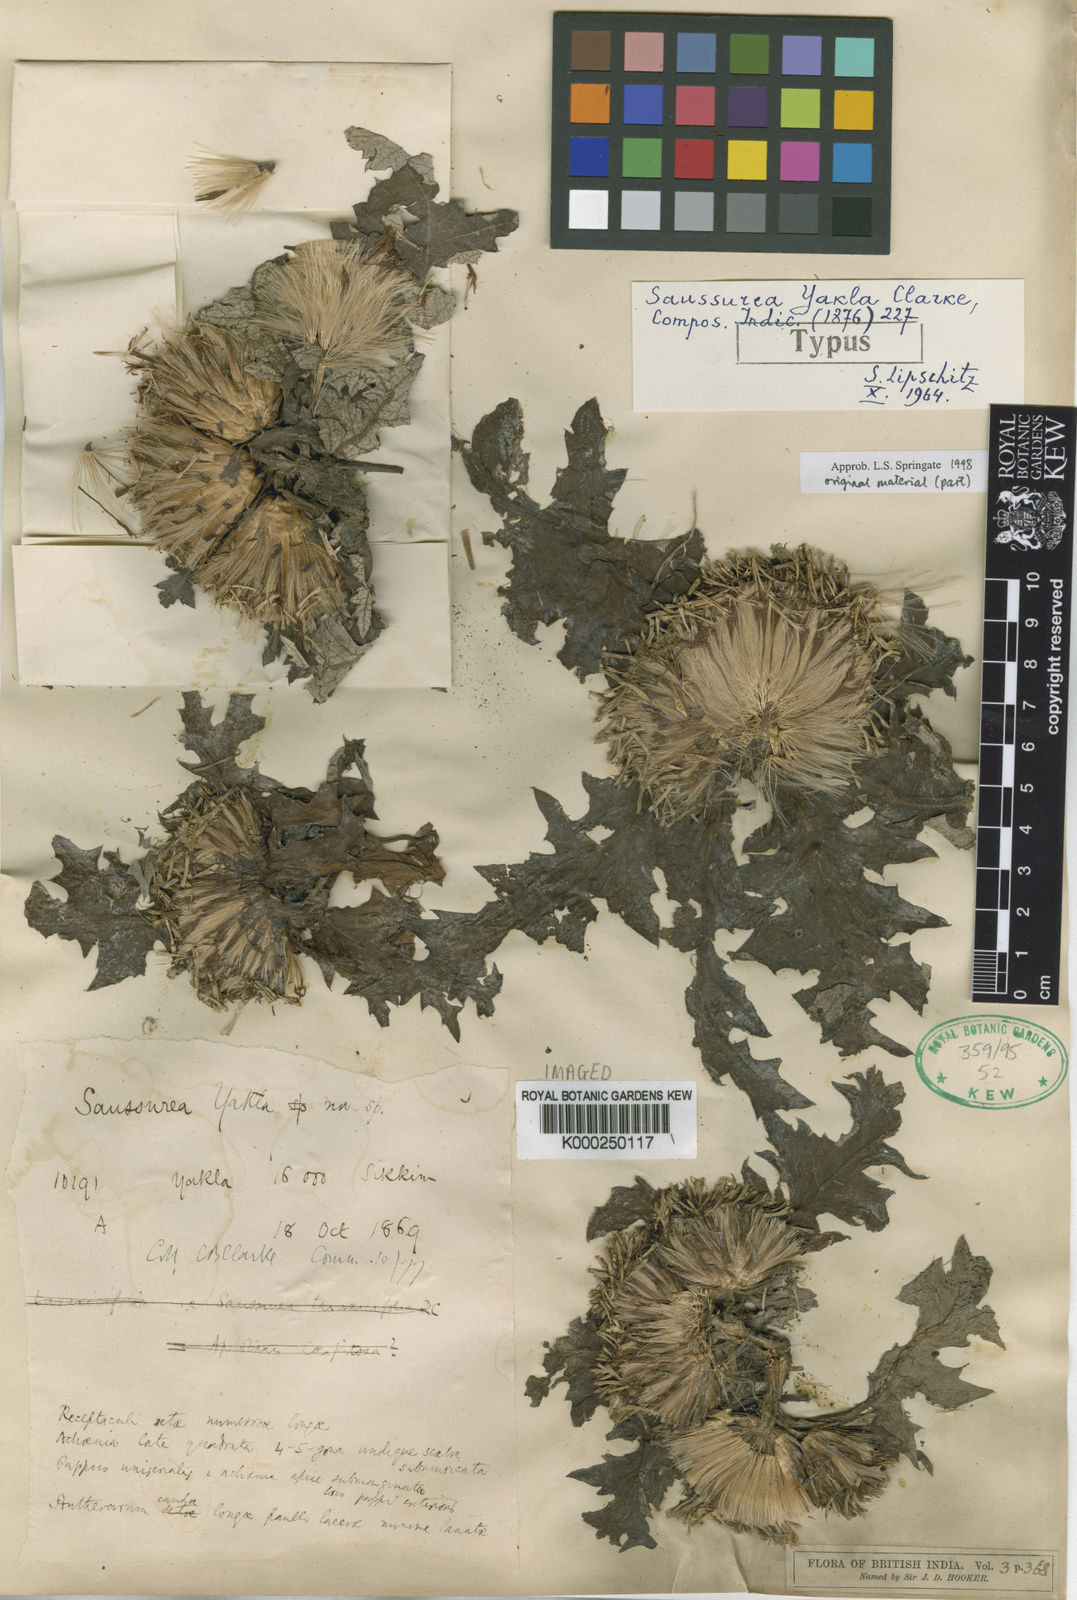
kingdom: Plantae
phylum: Tracheophyta
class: Magnoliopsida
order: Asterales
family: Asteraceae
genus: Jurinea
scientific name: Jurinea yakla
